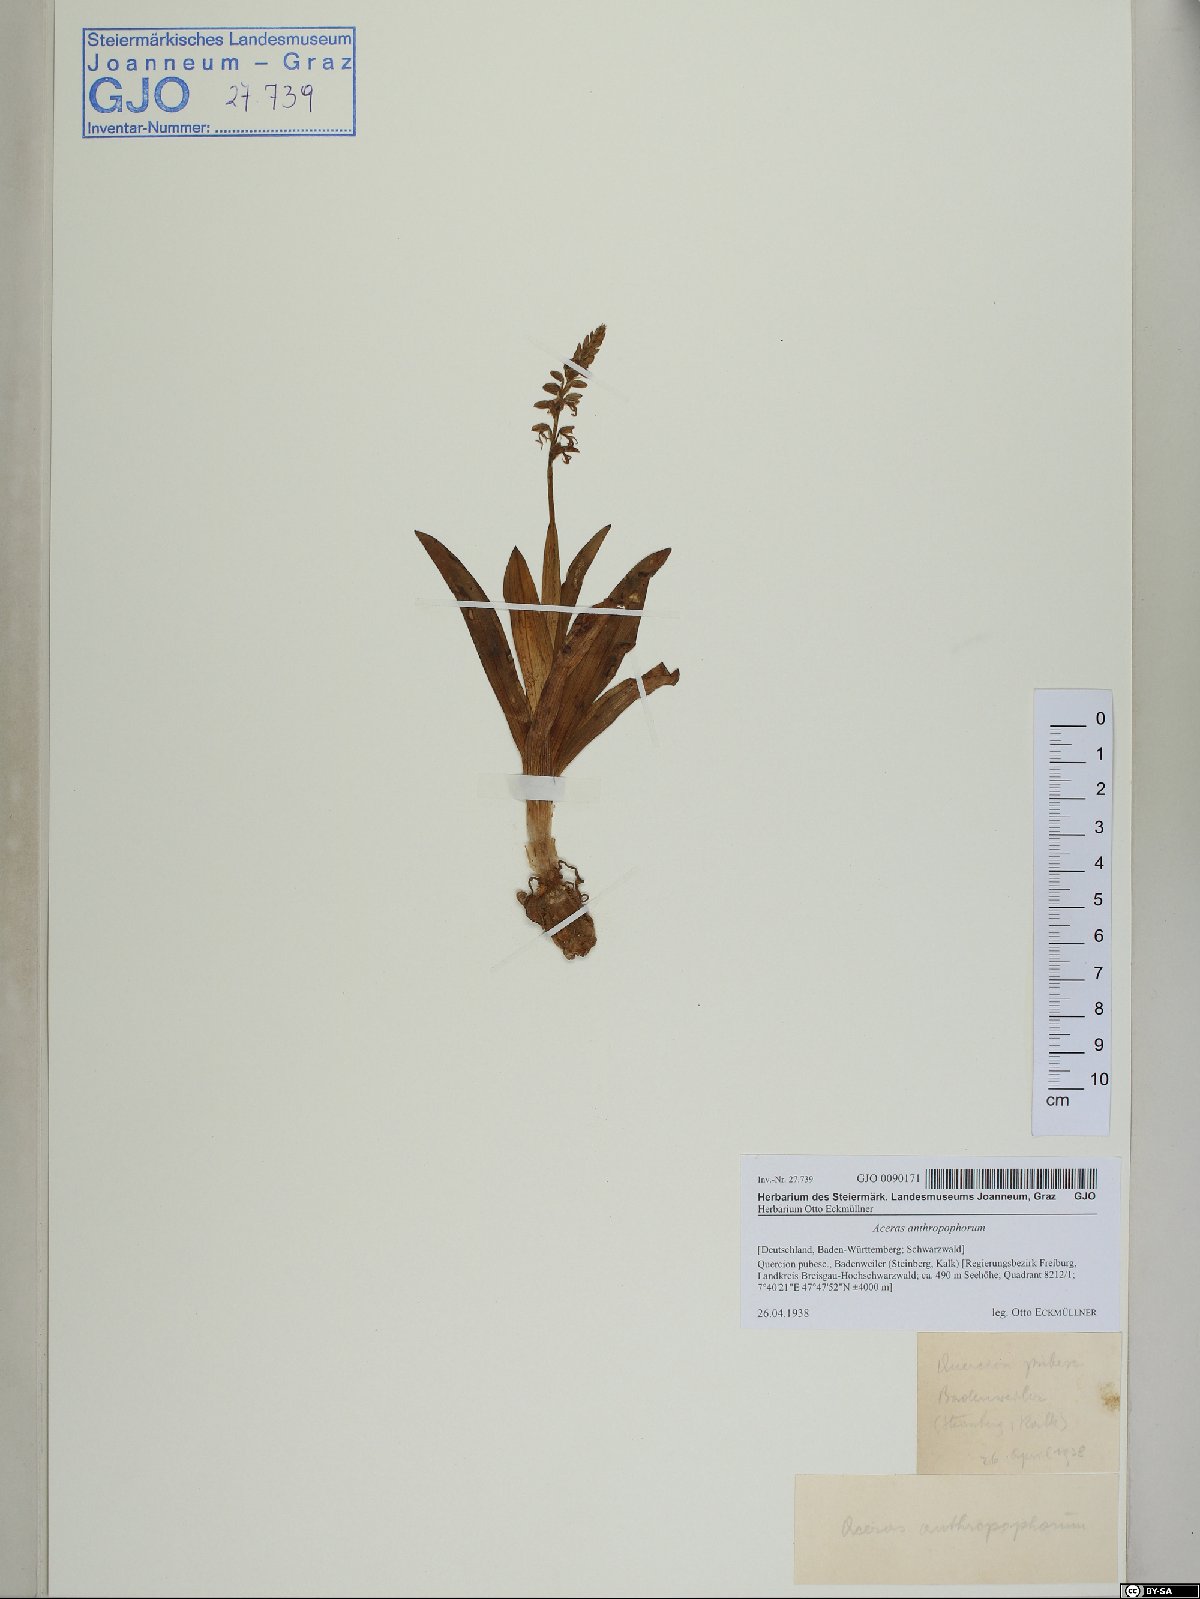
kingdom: Plantae
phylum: Tracheophyta
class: Liliopsida
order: Asparagales
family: Orchidaceae
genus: Orchis
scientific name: Orchis anthropophora
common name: Man orchid
